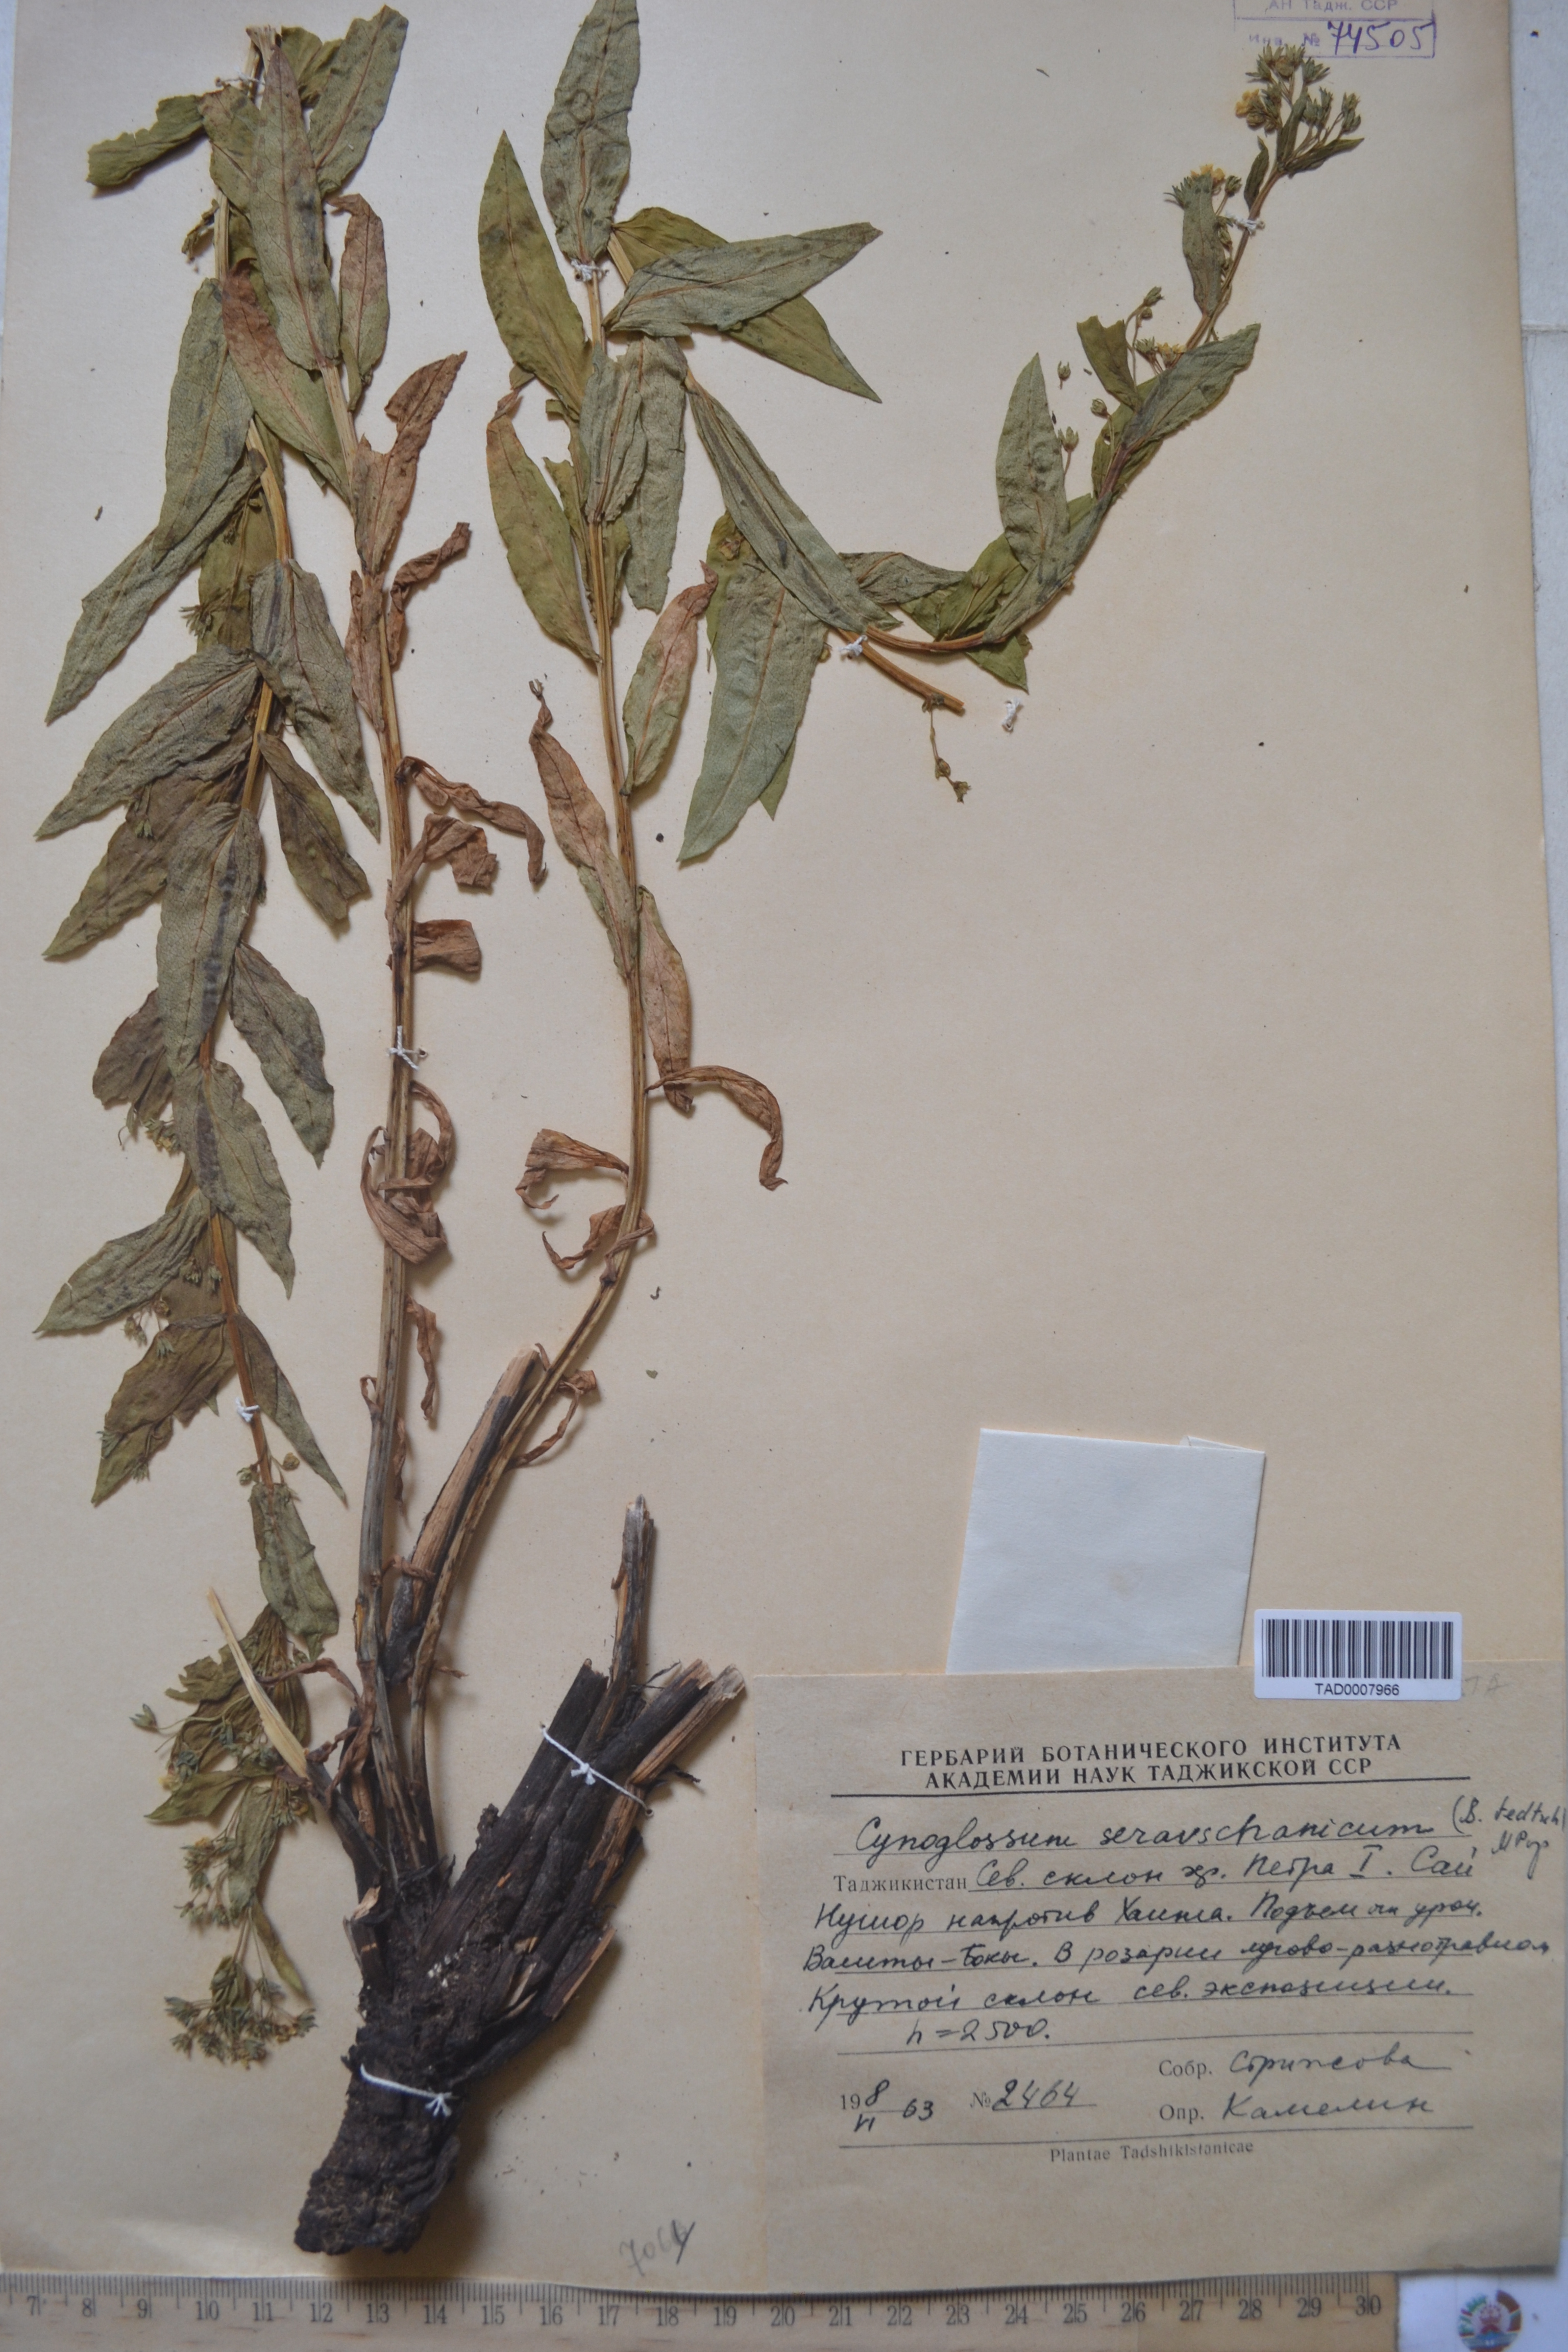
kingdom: Plantae
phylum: Tracheophyta
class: Magnoliopsida
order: Boraginales
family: Boraginaceae
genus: Cynoglossum
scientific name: Cynoglossum
